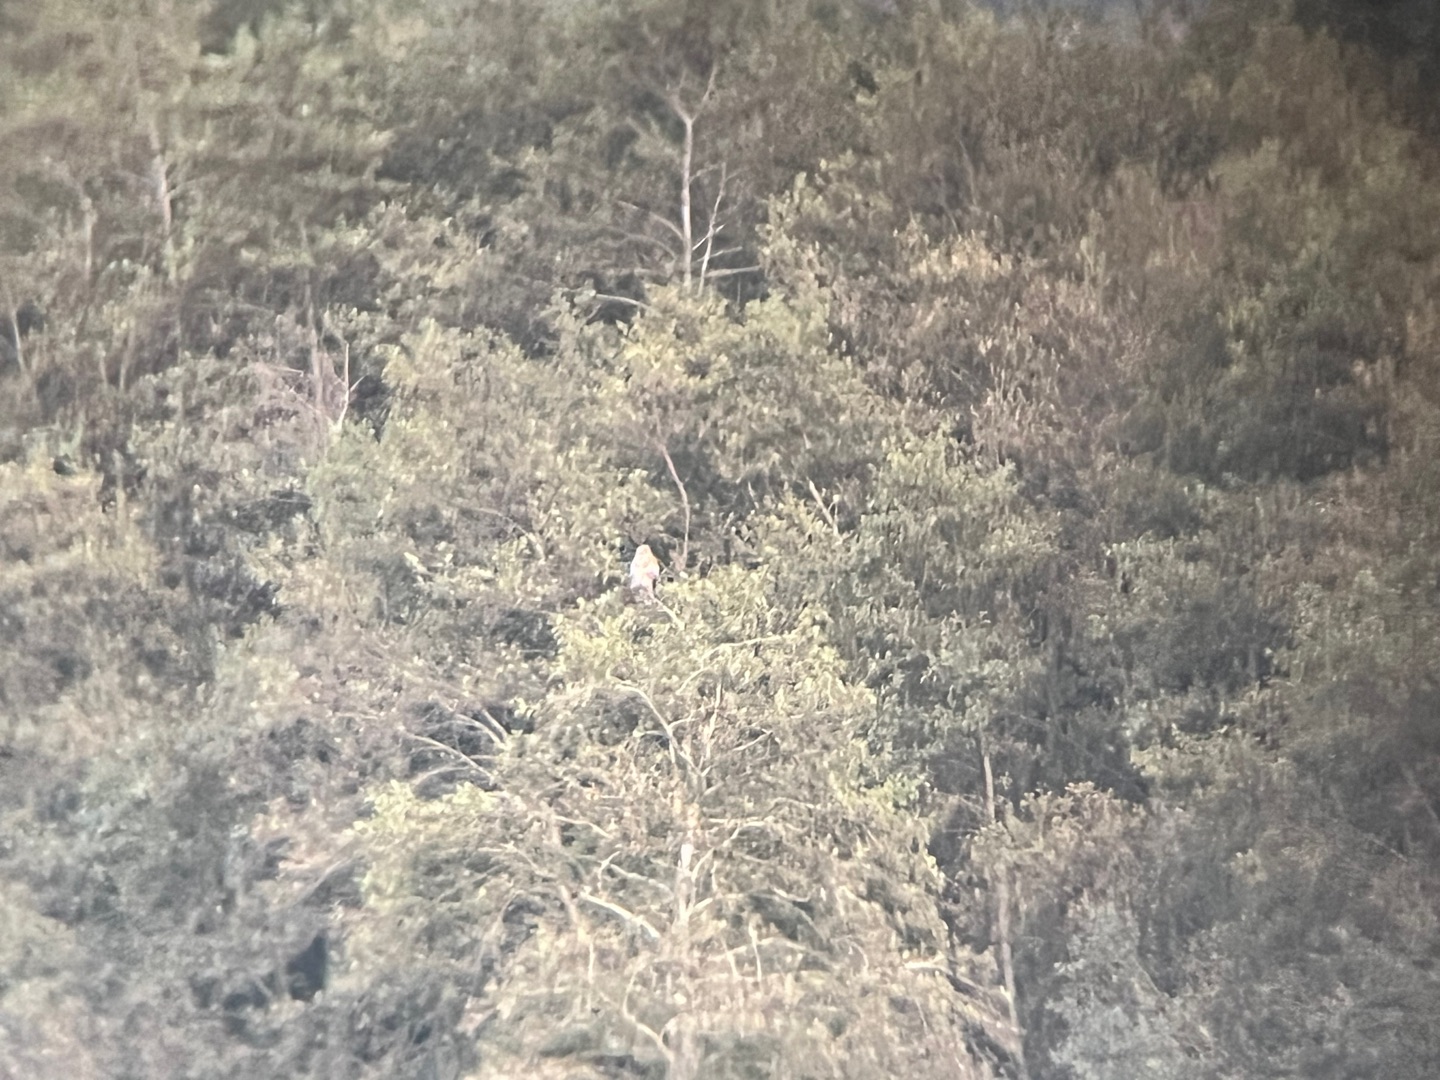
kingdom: Animalia
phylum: Chordata
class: Aves
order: Accipitriformes
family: Accipitridae
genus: Buteo
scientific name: Buteo buteo
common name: Musvåge
